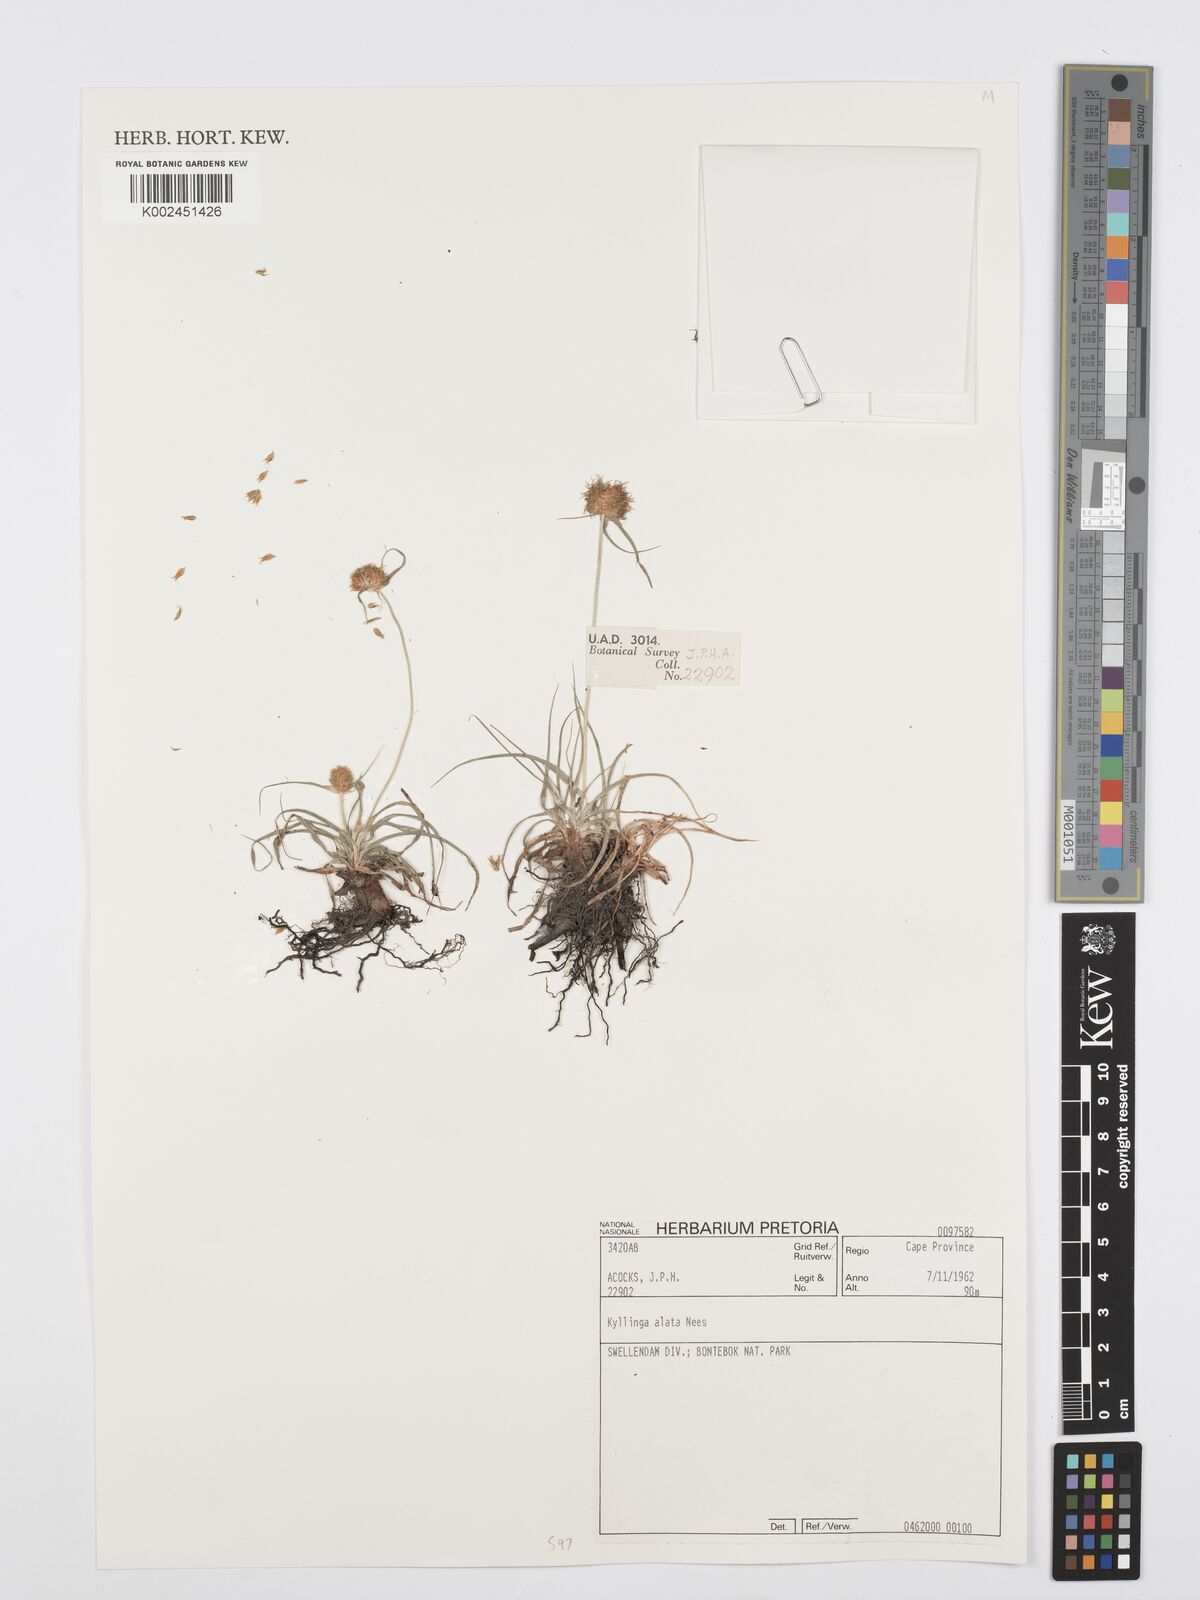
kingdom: Plantae
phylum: Tracheophyta
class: Liliopsida
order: Poales
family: Cyperaceae
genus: Cyperus
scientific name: Cyperus alatus
